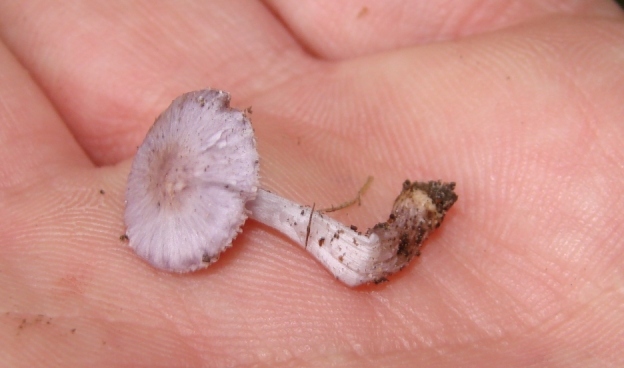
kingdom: Fungi
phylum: Basidiomycota
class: Agaricomycetes
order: Agaricales
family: Inocybaceae
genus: Inocybe
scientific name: Inocybe geophylla
